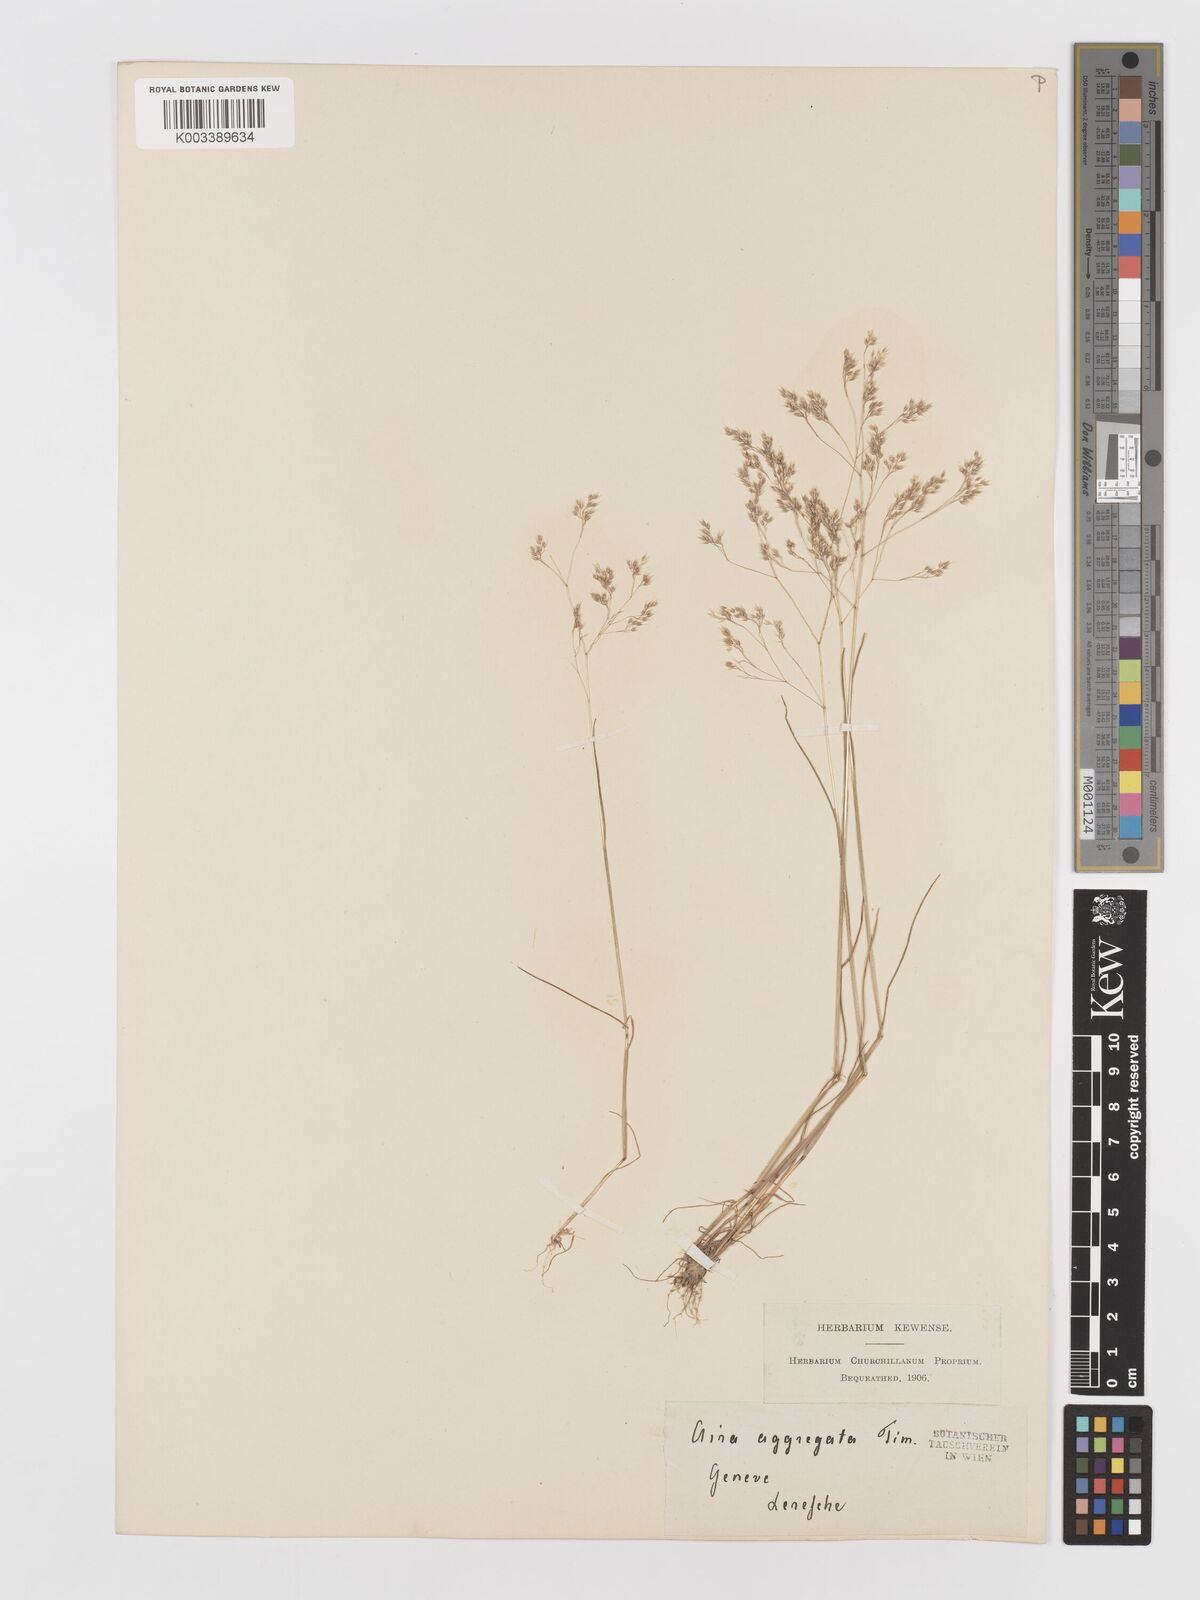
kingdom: Plantae
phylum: Tracheophyta
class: Liliopsida
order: Poales
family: Poaceae
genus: Aira
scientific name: Aira caryophyllea
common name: Silver hairgrass
